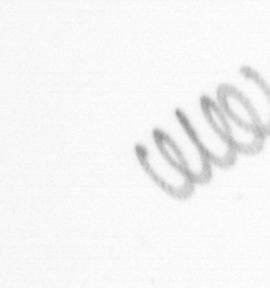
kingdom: Chromista
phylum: Ochrophyta
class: Bacillariophyceae
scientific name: Bacillariophyceae
